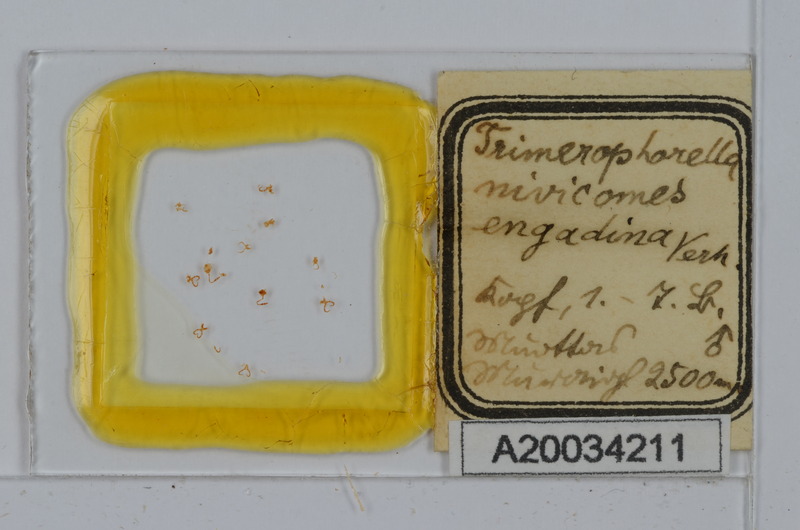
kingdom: Animalia
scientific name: Animalia
